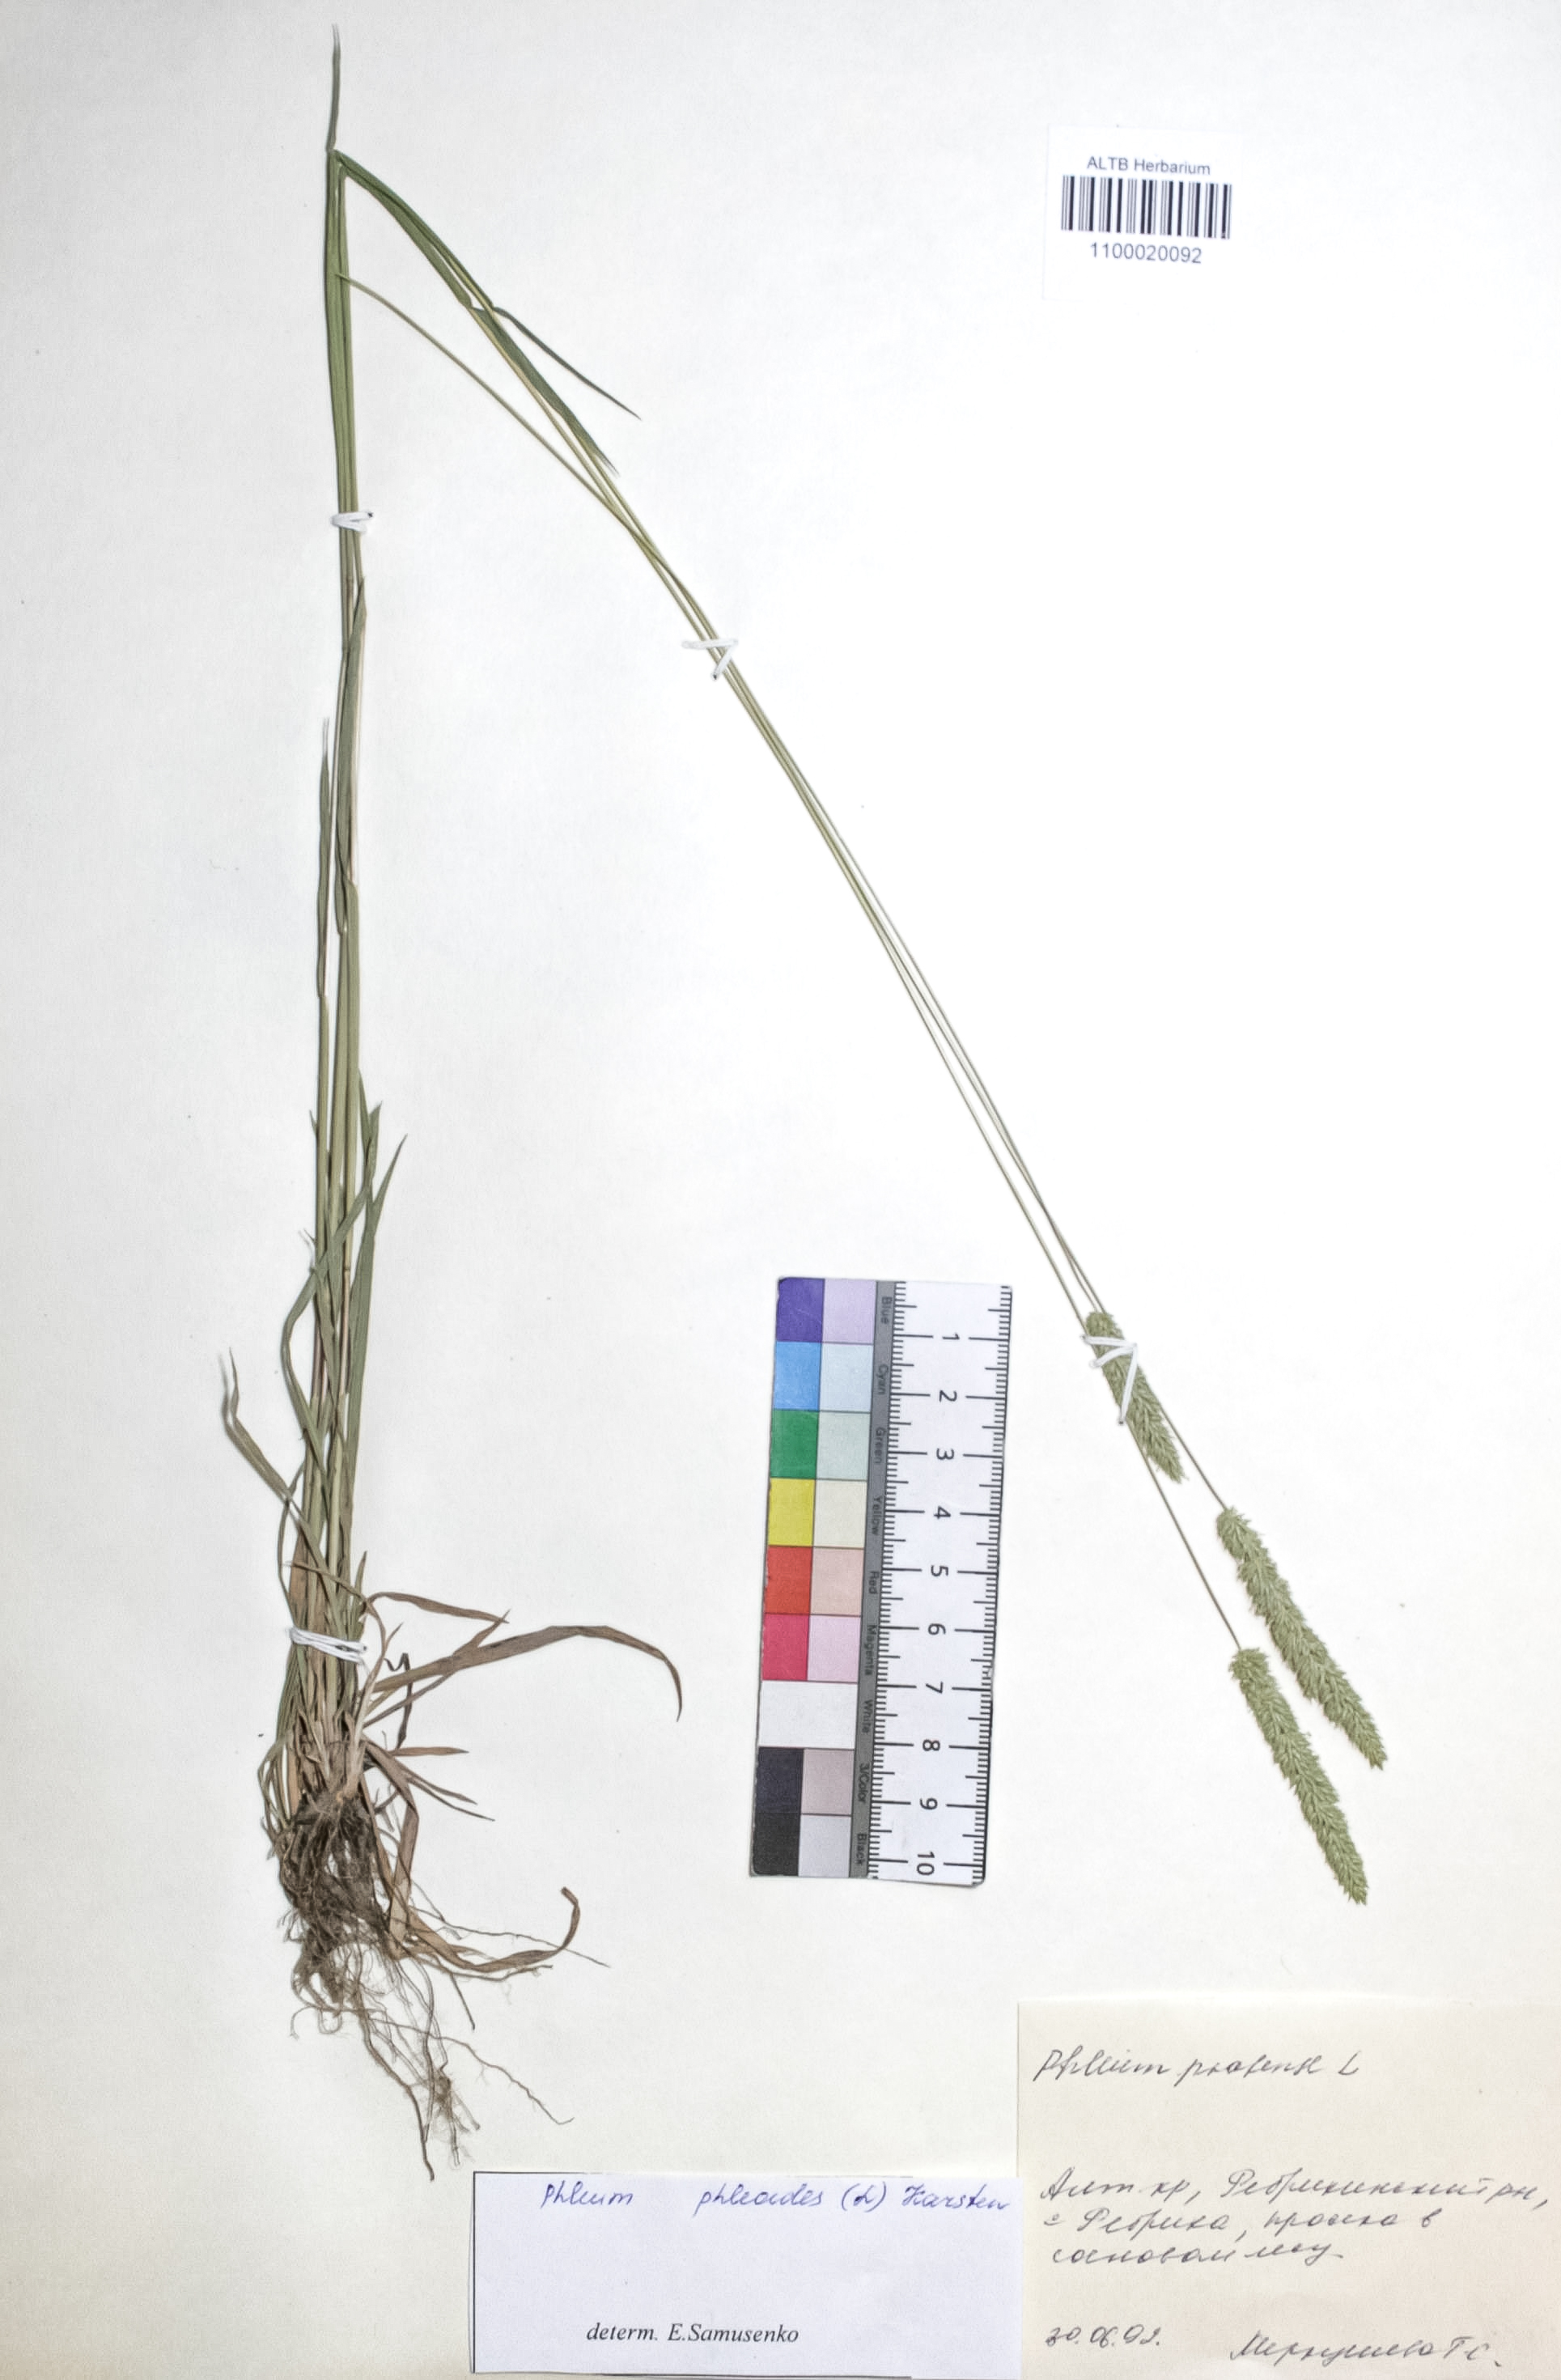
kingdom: Plantae
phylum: Tracheophyta
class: Liliopsida
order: Poales
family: Poaceae
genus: Phleum
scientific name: Phleum phleoides
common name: Purple-stem cat's-tail
